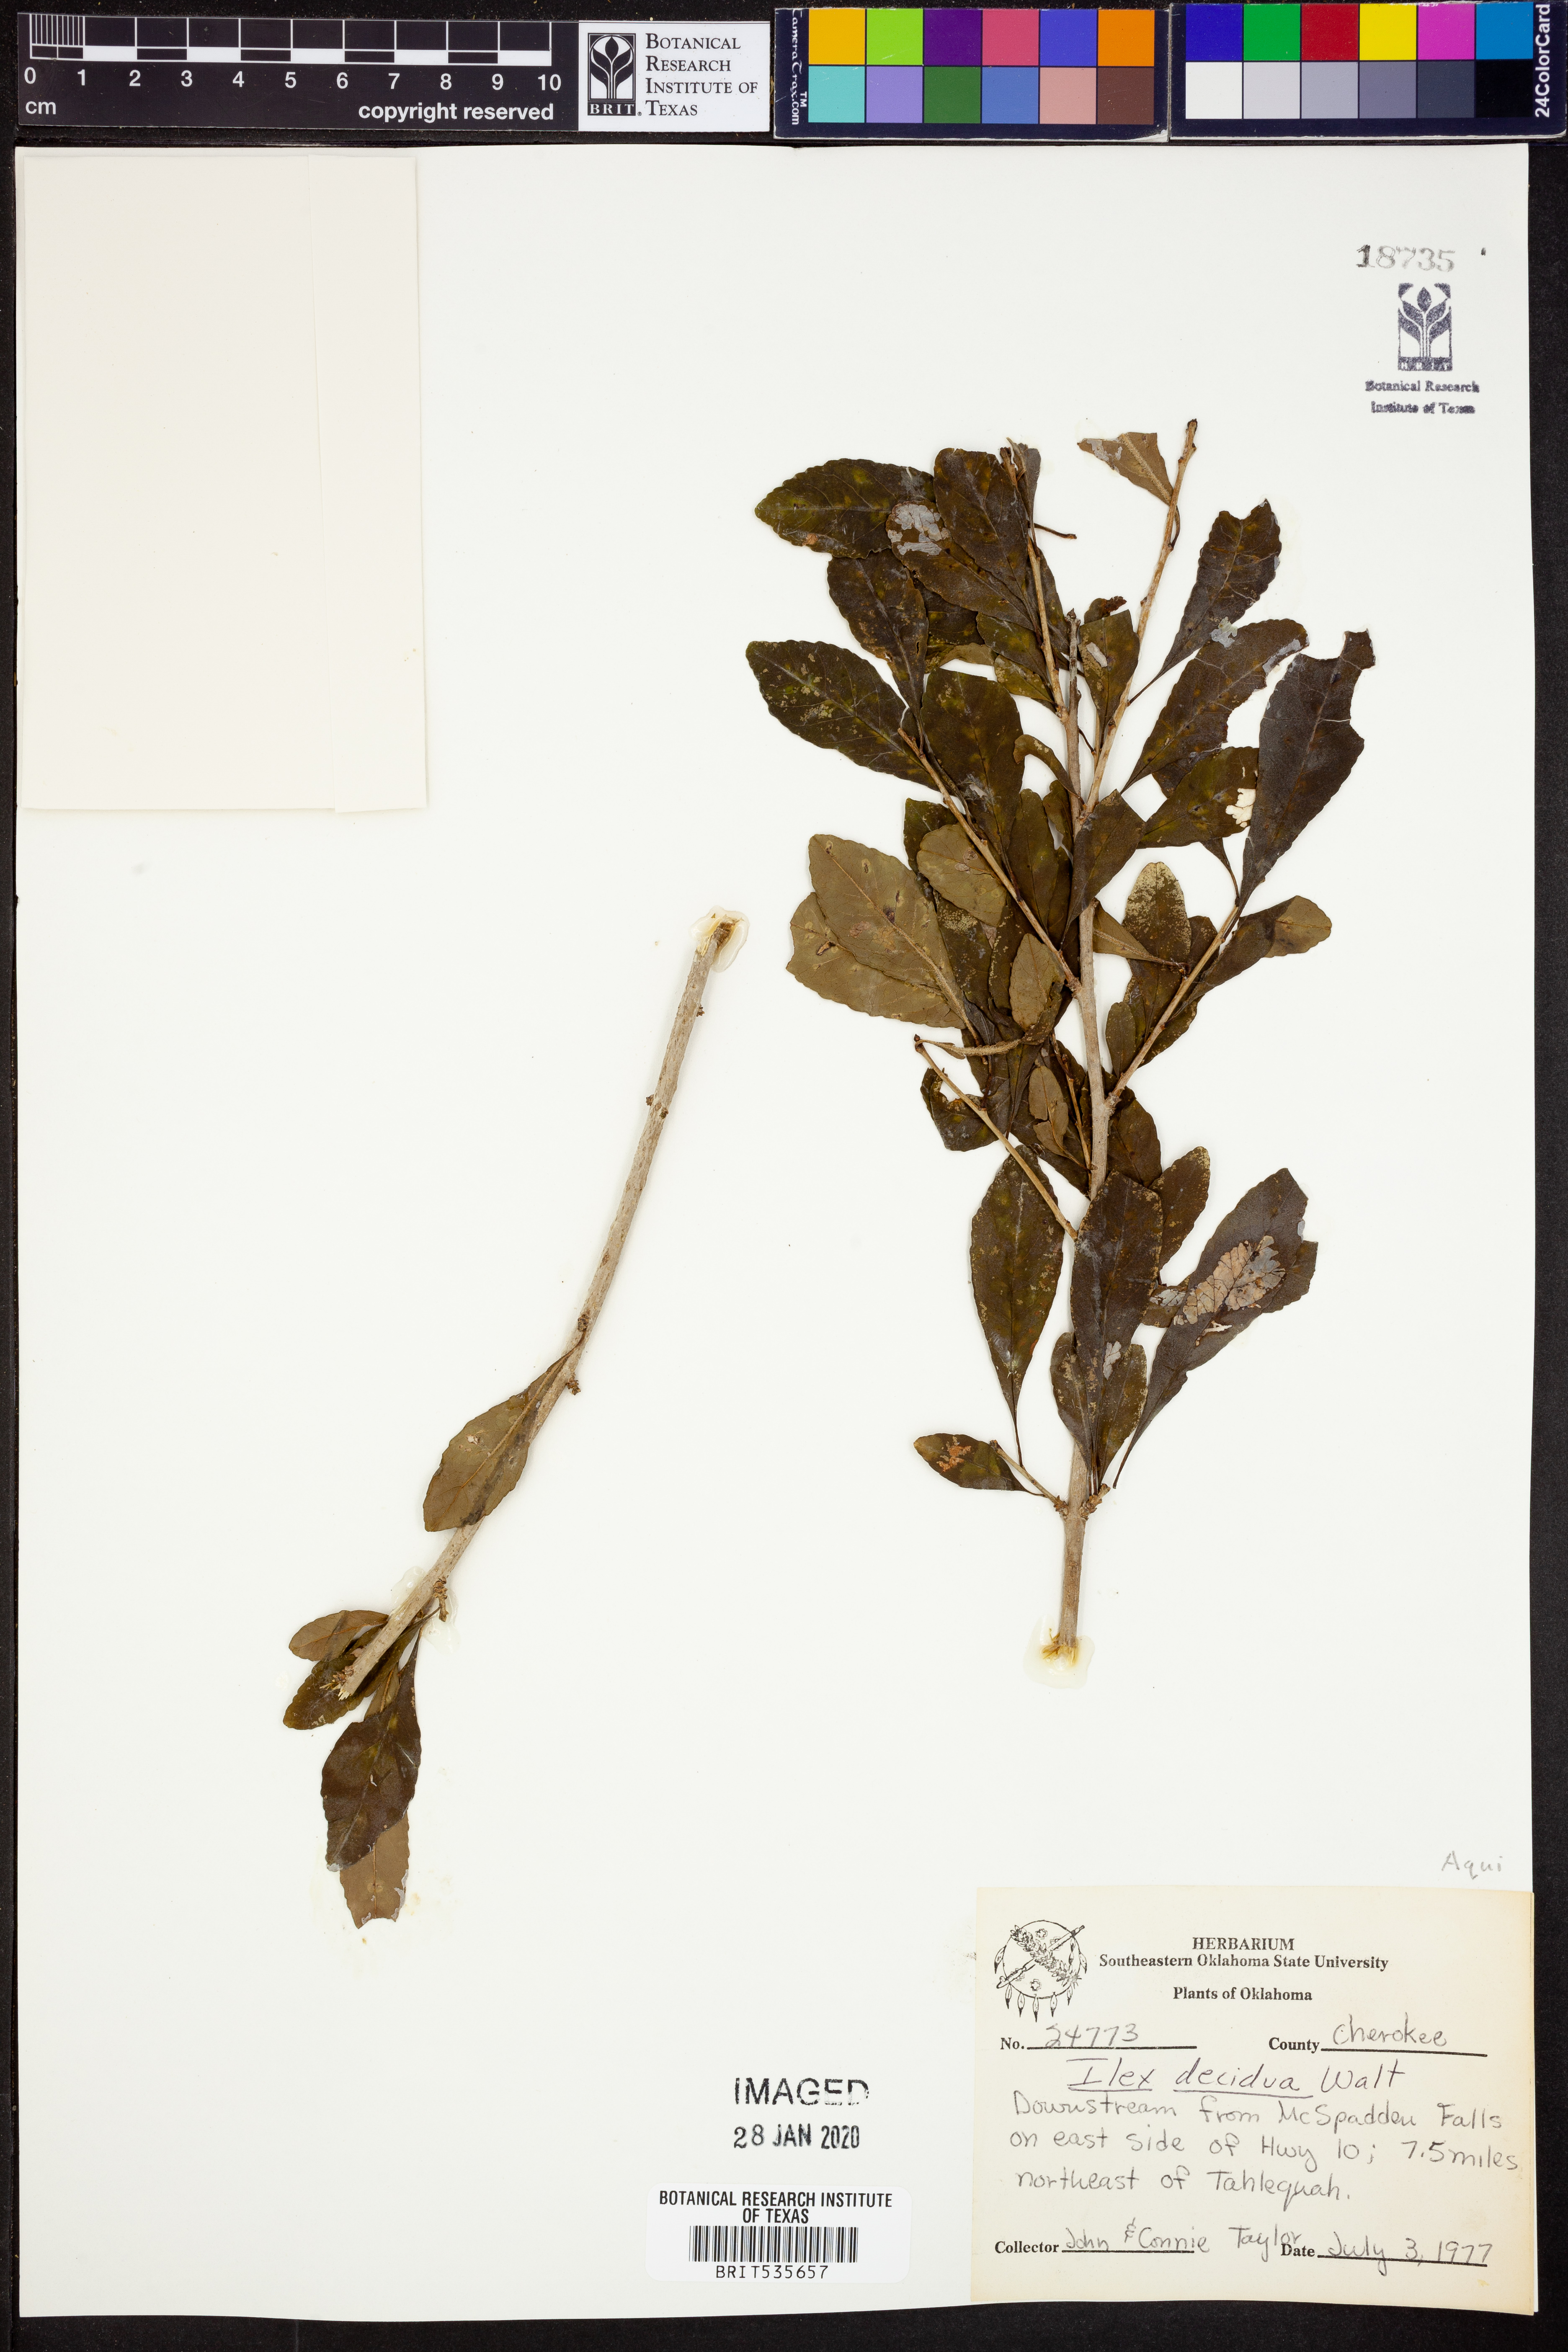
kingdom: Plantae
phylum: Tracheophyta
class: Magnoliopsida
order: Aquifoliales
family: Aquifoliaceae
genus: Ilex
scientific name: Ilex decidua
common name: Possum-haw
